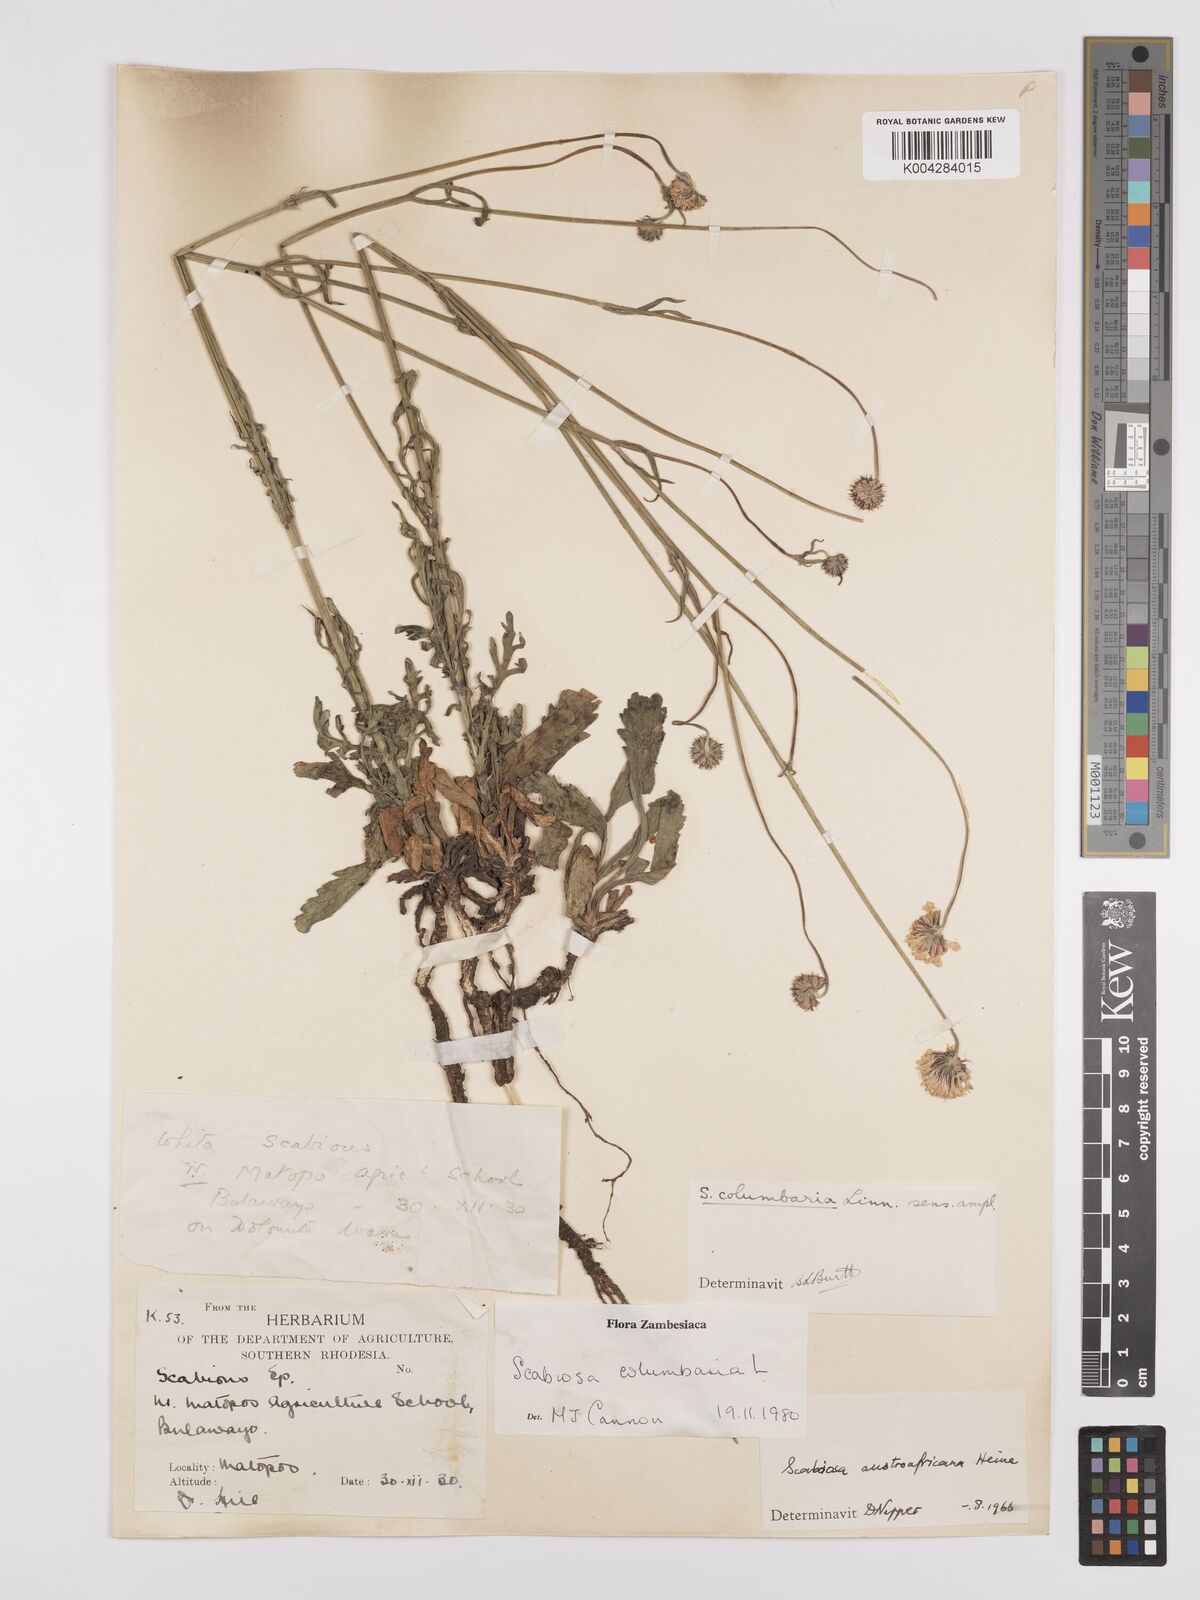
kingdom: Plantae
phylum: Tracheophyta
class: Magnoliopsida
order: Dipsacales
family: Caprifoliaceae
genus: Scabiosa
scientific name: Scabiosa austroafricana
